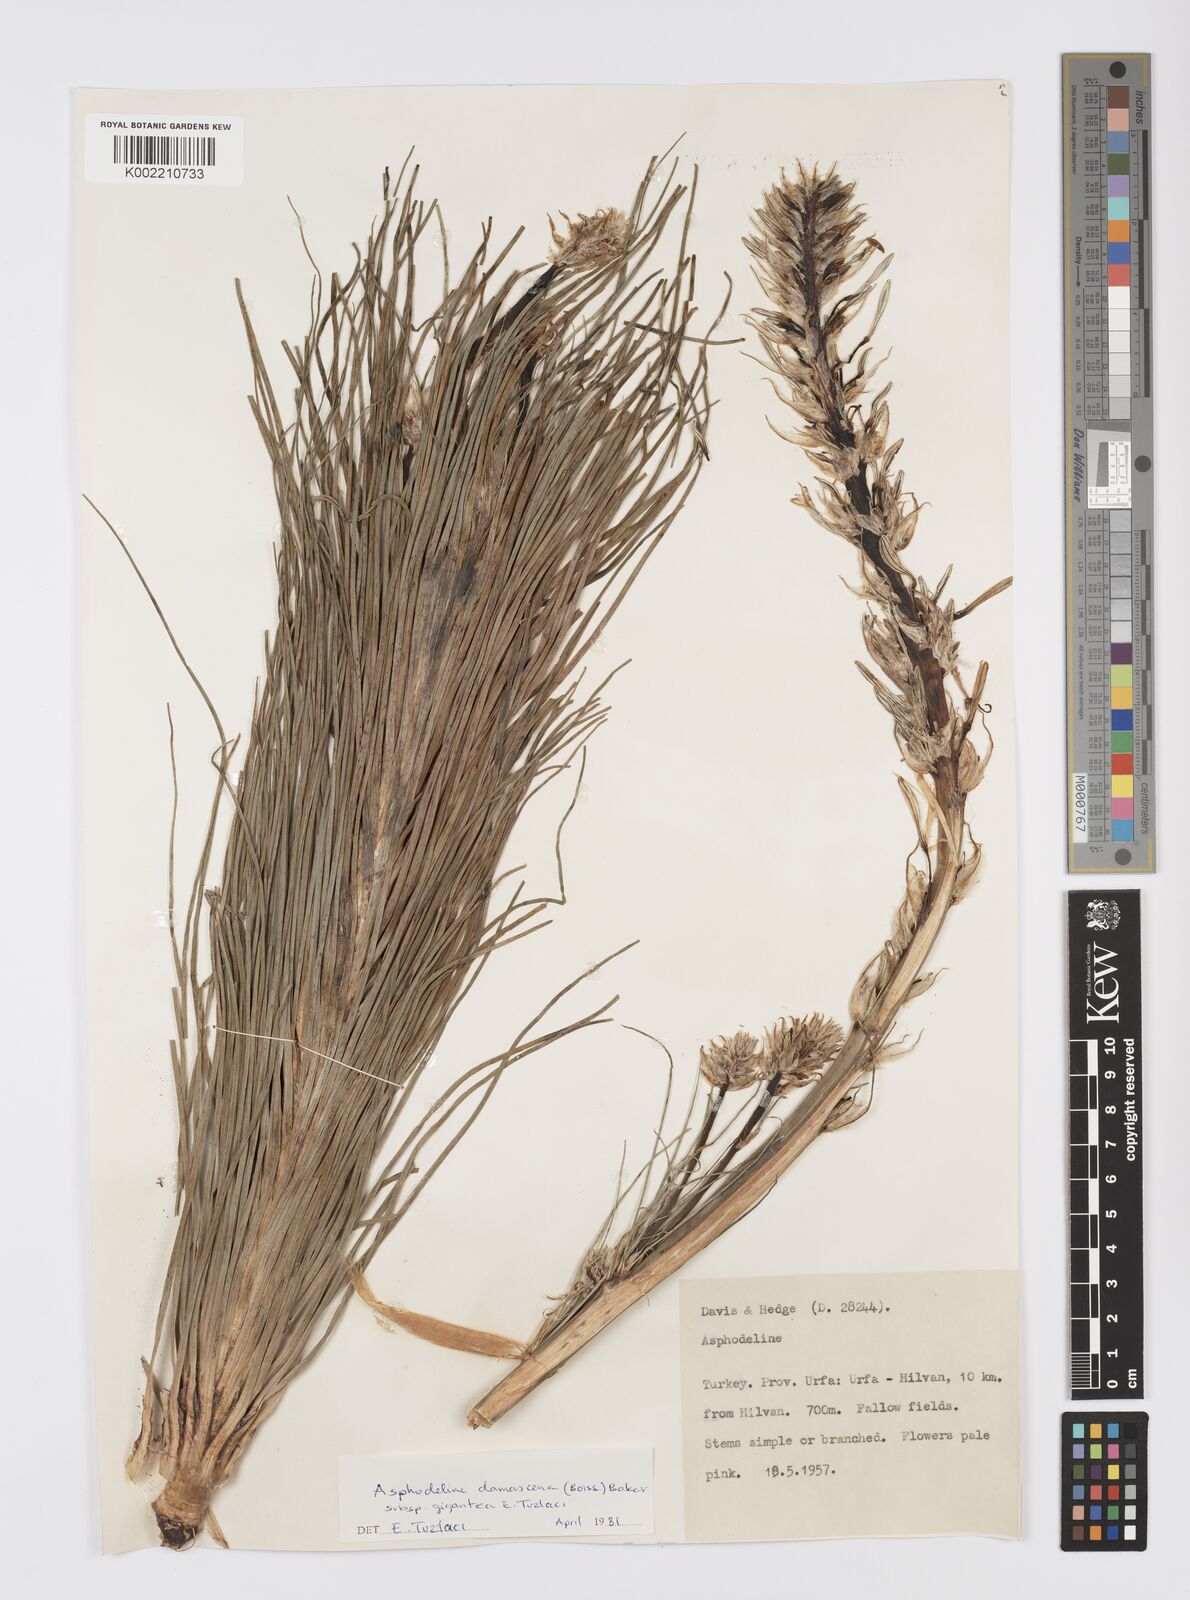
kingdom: Plantae
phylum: Tracheophyta
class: Liliopsida
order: Asparagales
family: Asphodelaceae
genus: Asphodeline
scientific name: Asphodeline damascena
